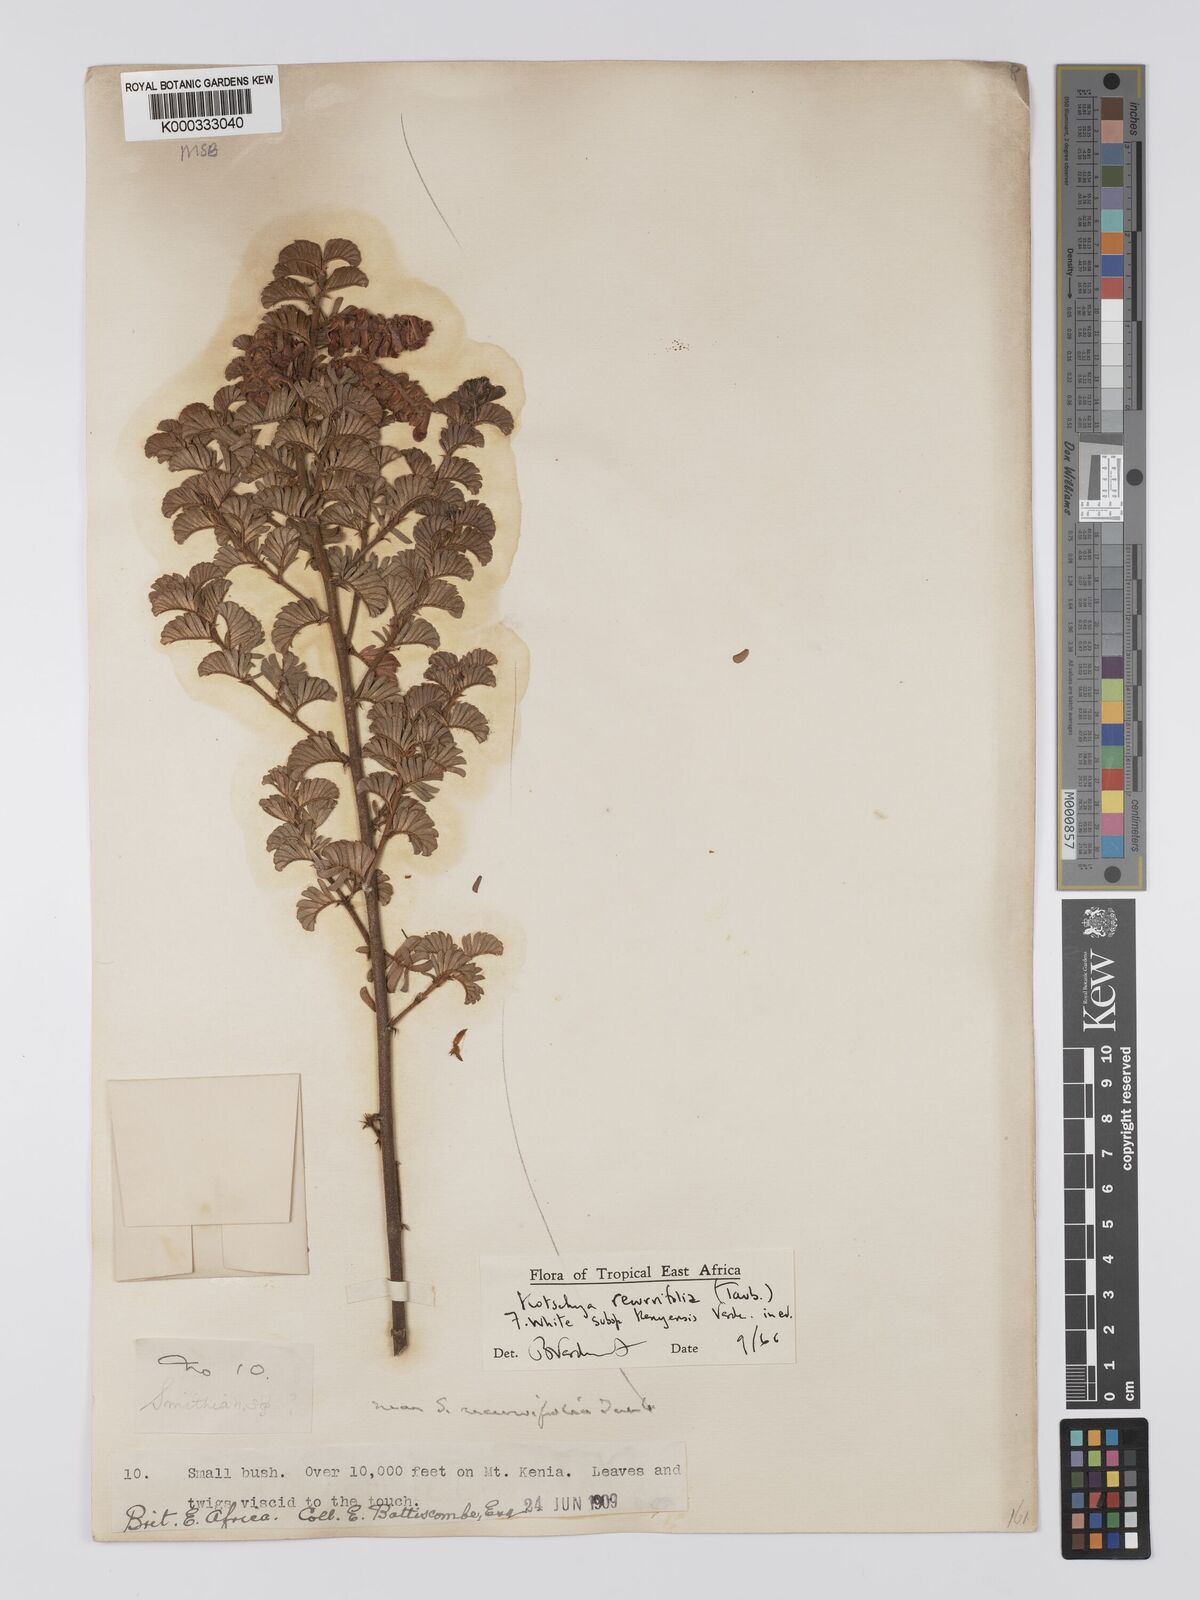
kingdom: Plantae
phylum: Tracheophyta
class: Magnoliopsida
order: Fabales
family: Fabaceae
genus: Kotschya
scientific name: Kotschya recurvifolia
